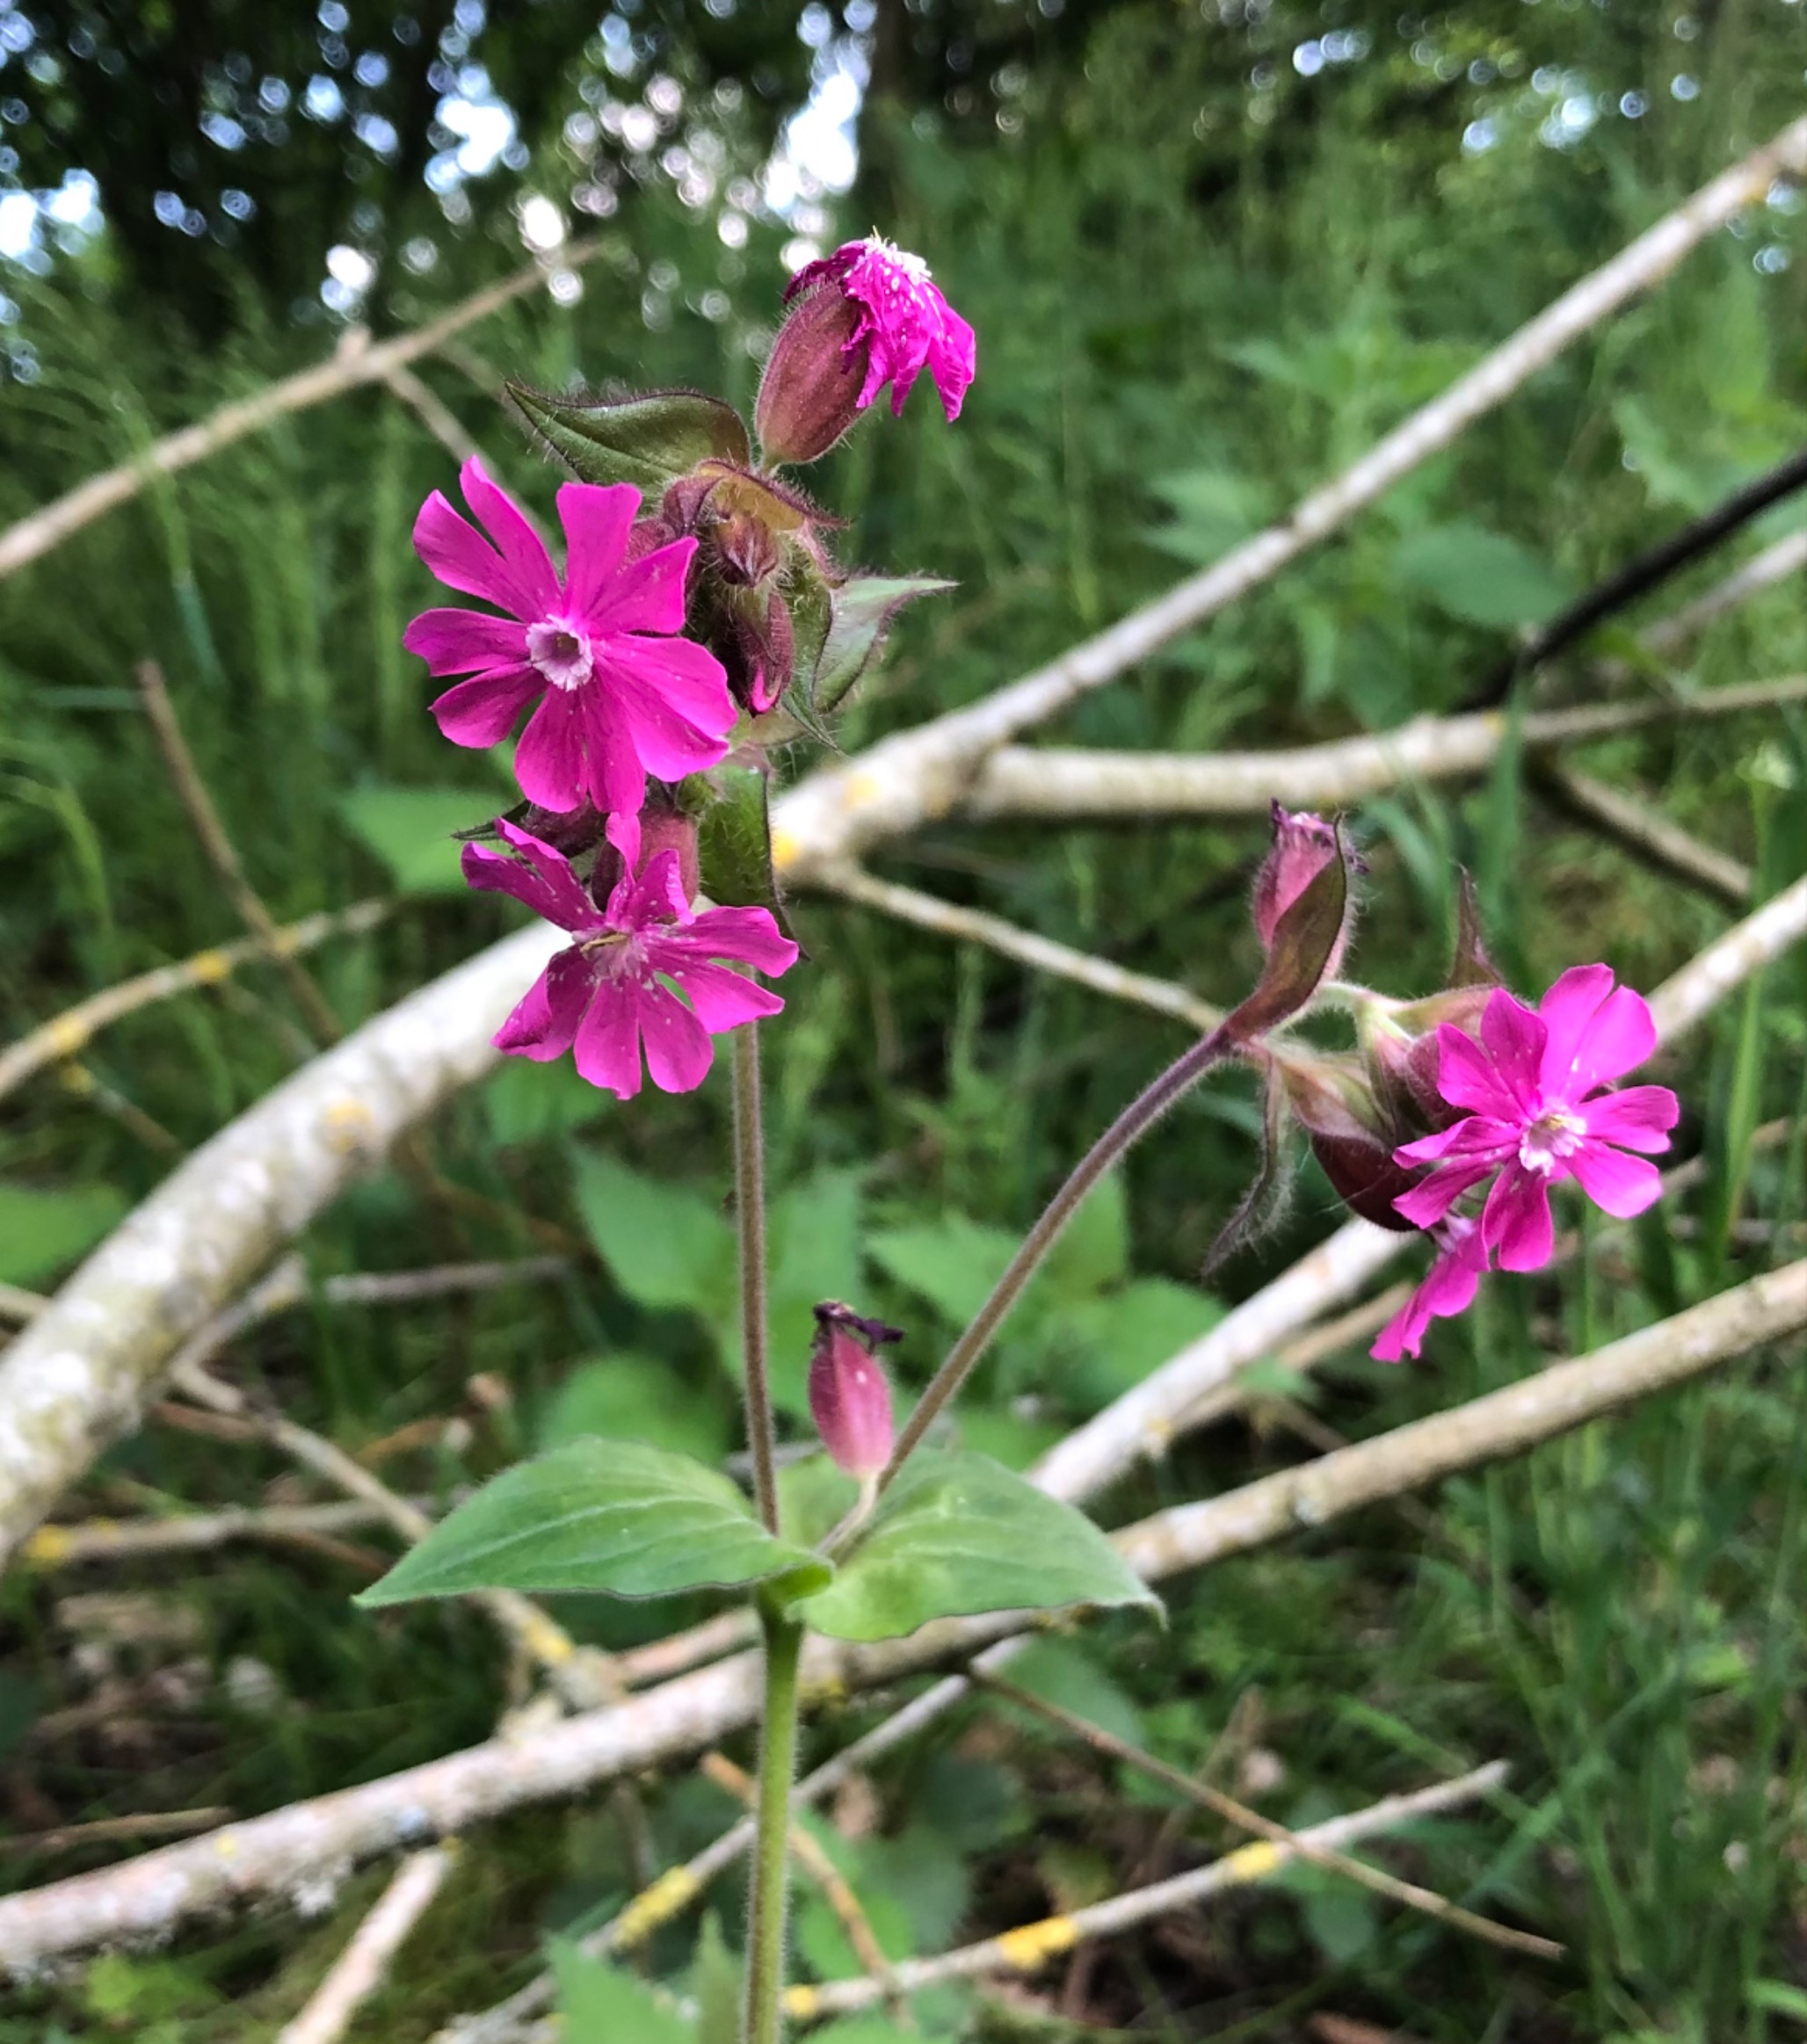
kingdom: Plantae
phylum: Tracheophyta
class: Magnoliopsida
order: Caryophyllales
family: Caryophyllaceae
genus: Silene
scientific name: Silene dioica
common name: Dagpragtstjerne
